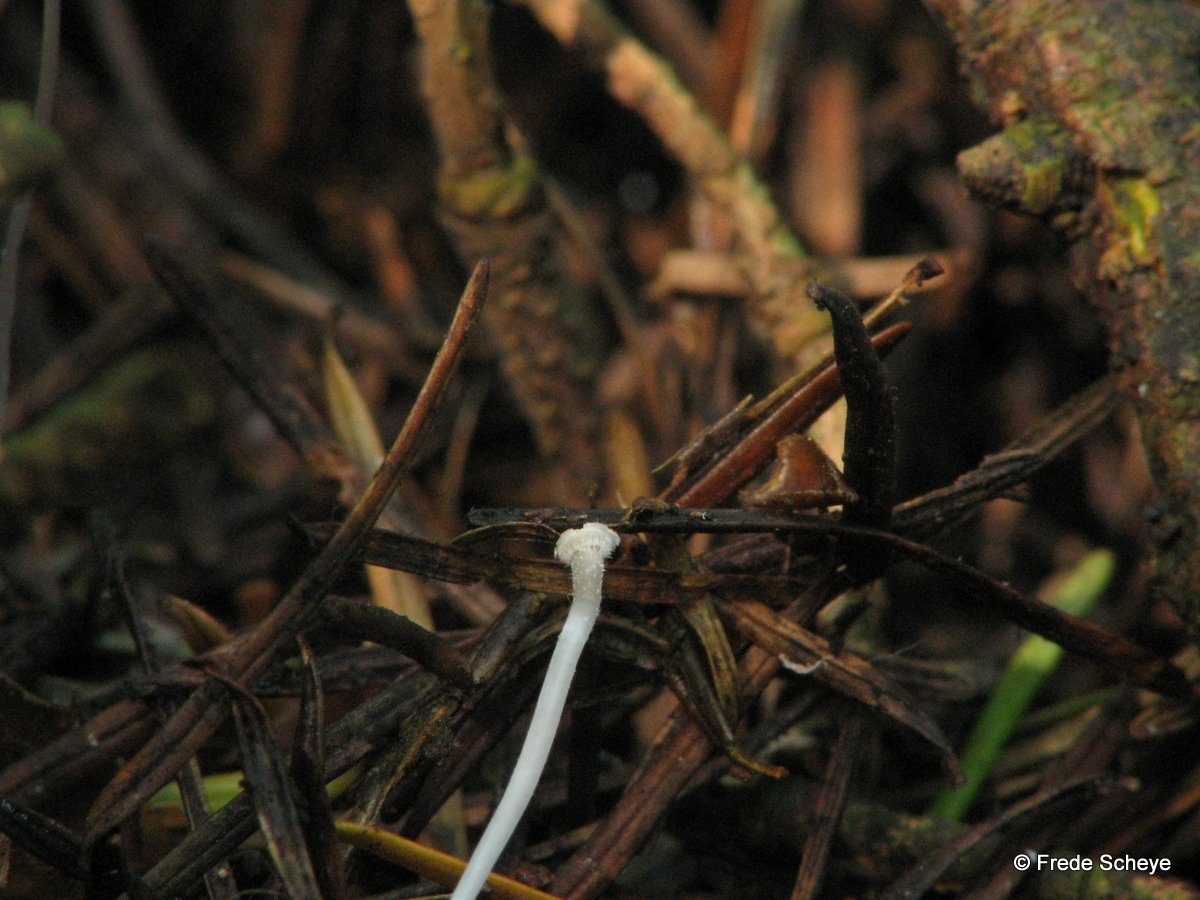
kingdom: Fungi
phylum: Basidiomycota
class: Agaricomycetes
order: Agaricales
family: Mycenaceae
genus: Mycena
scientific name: Mycena tenerrima
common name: pudret huesvamp
